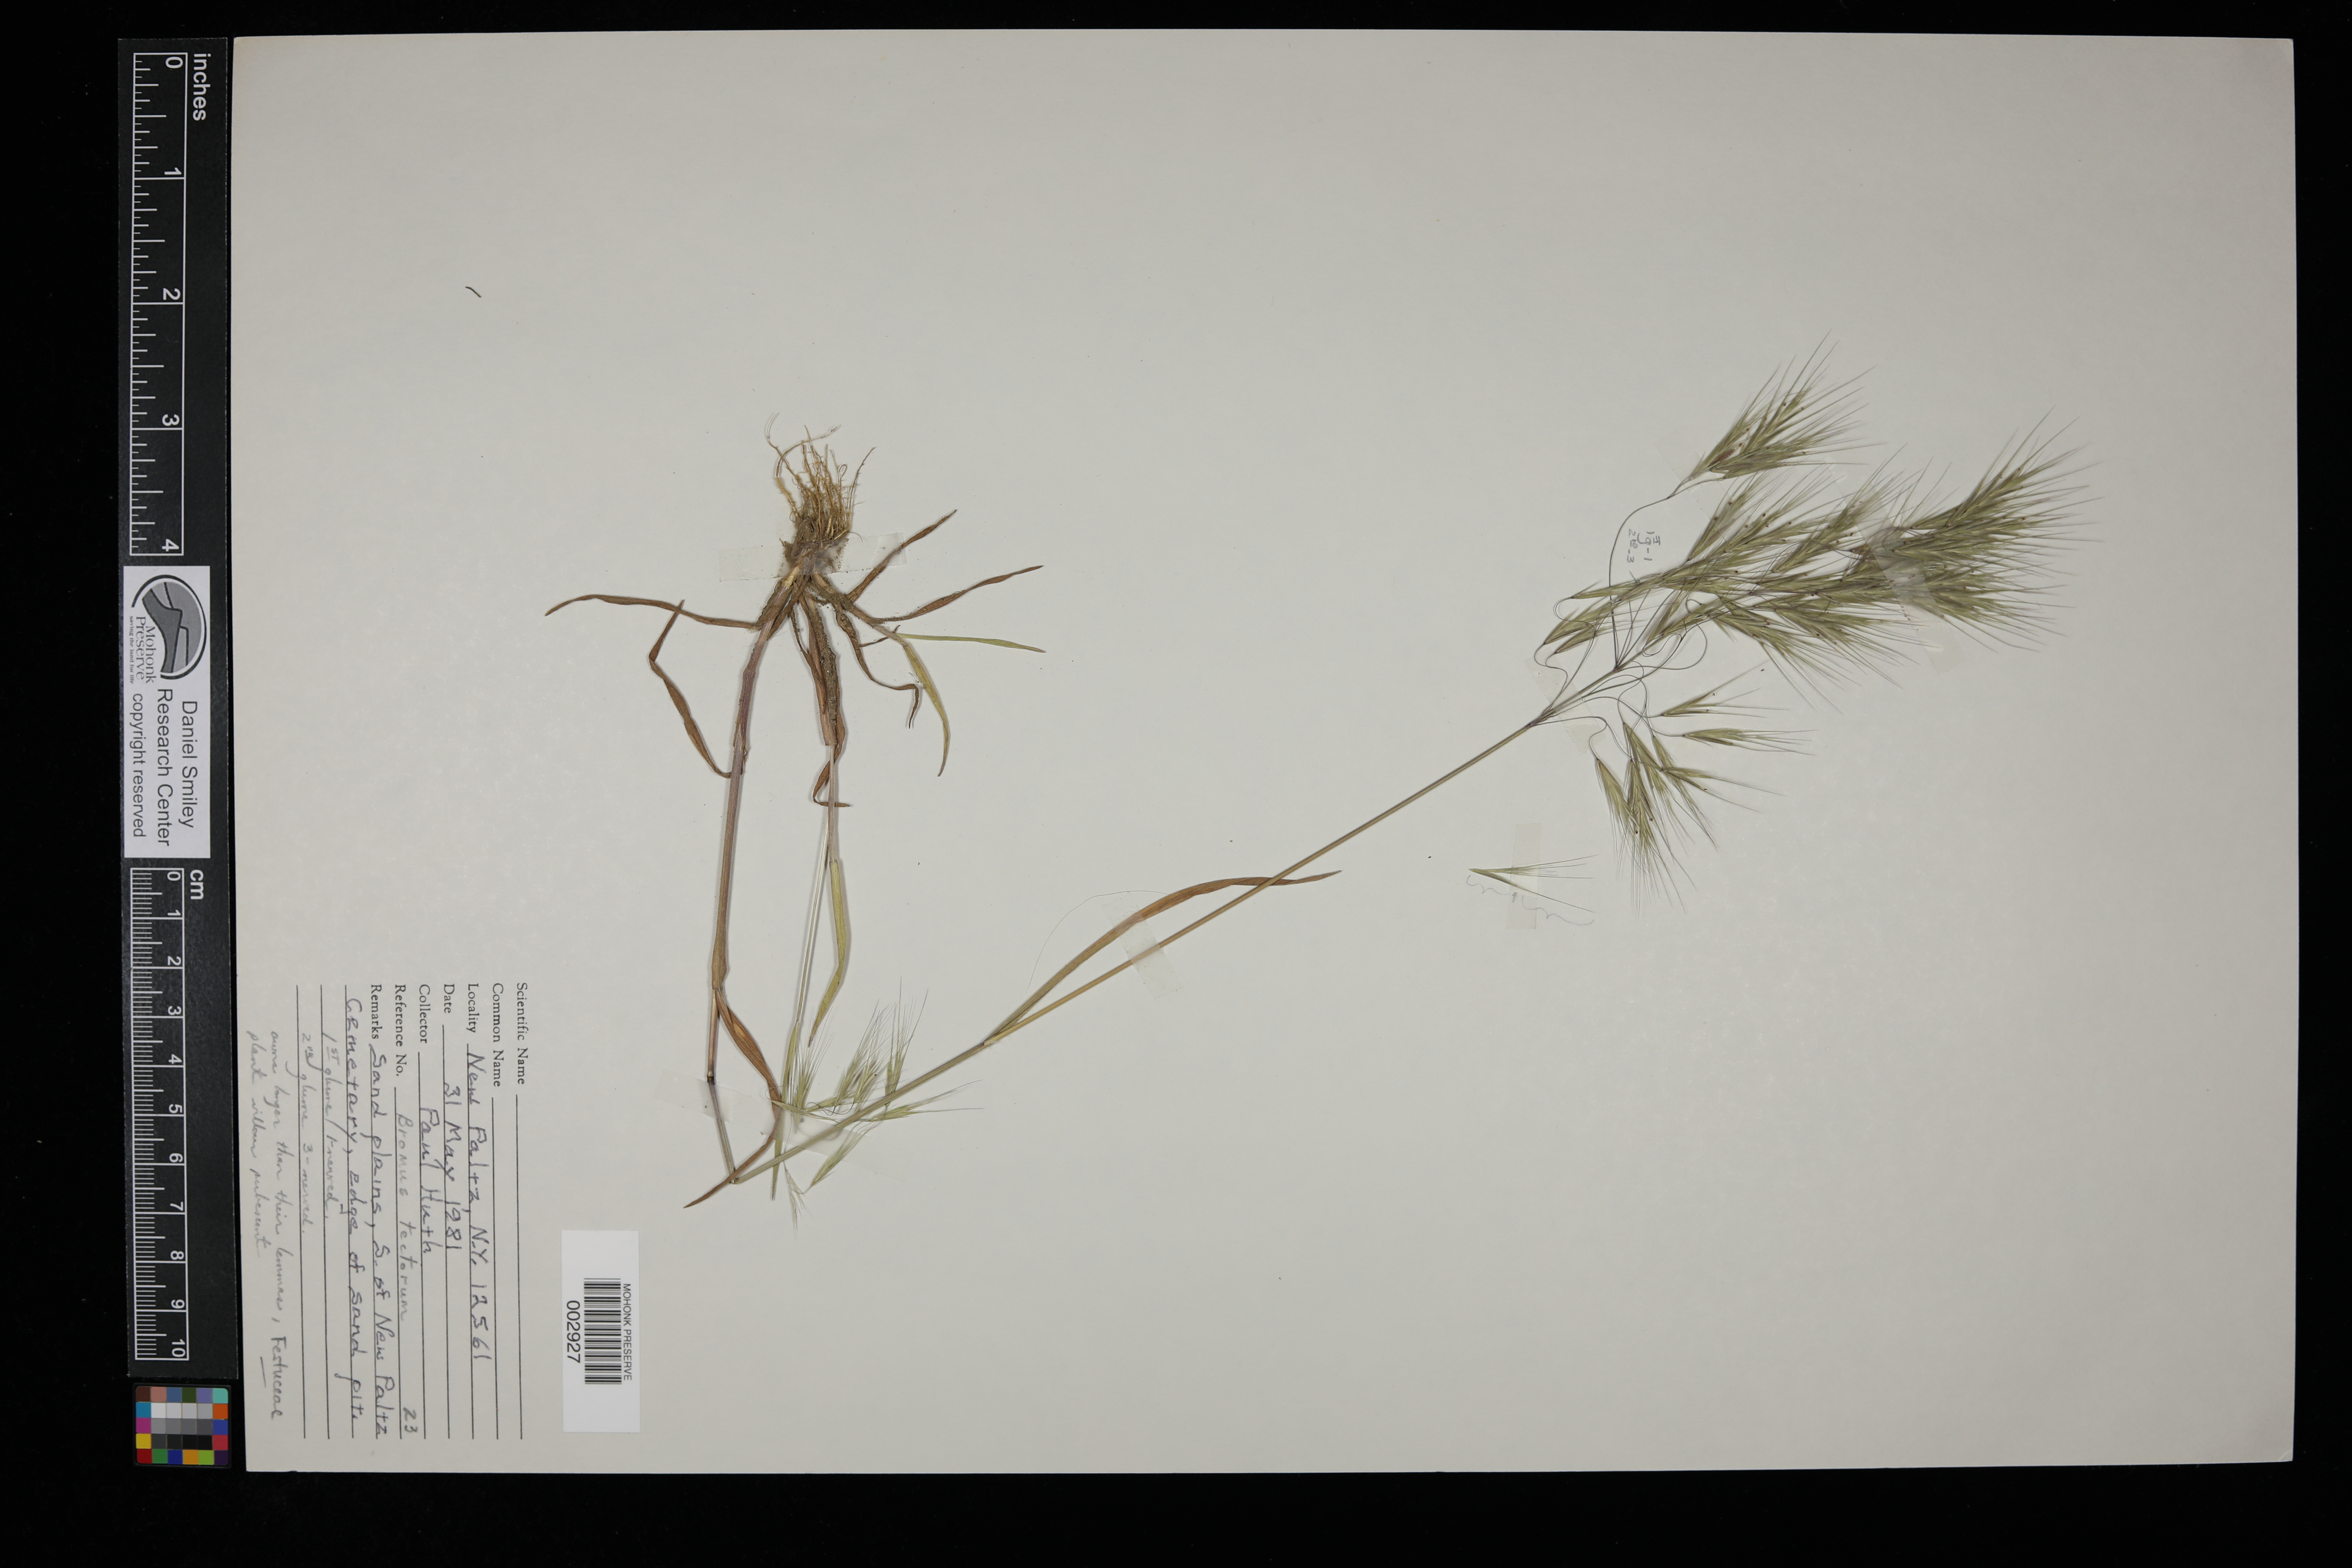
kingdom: Plantae
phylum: Tracheophyta
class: Liliopsida
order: Poales
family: Poaceae
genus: Bromus
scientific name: Bromus tectorum
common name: Cheatgrass
